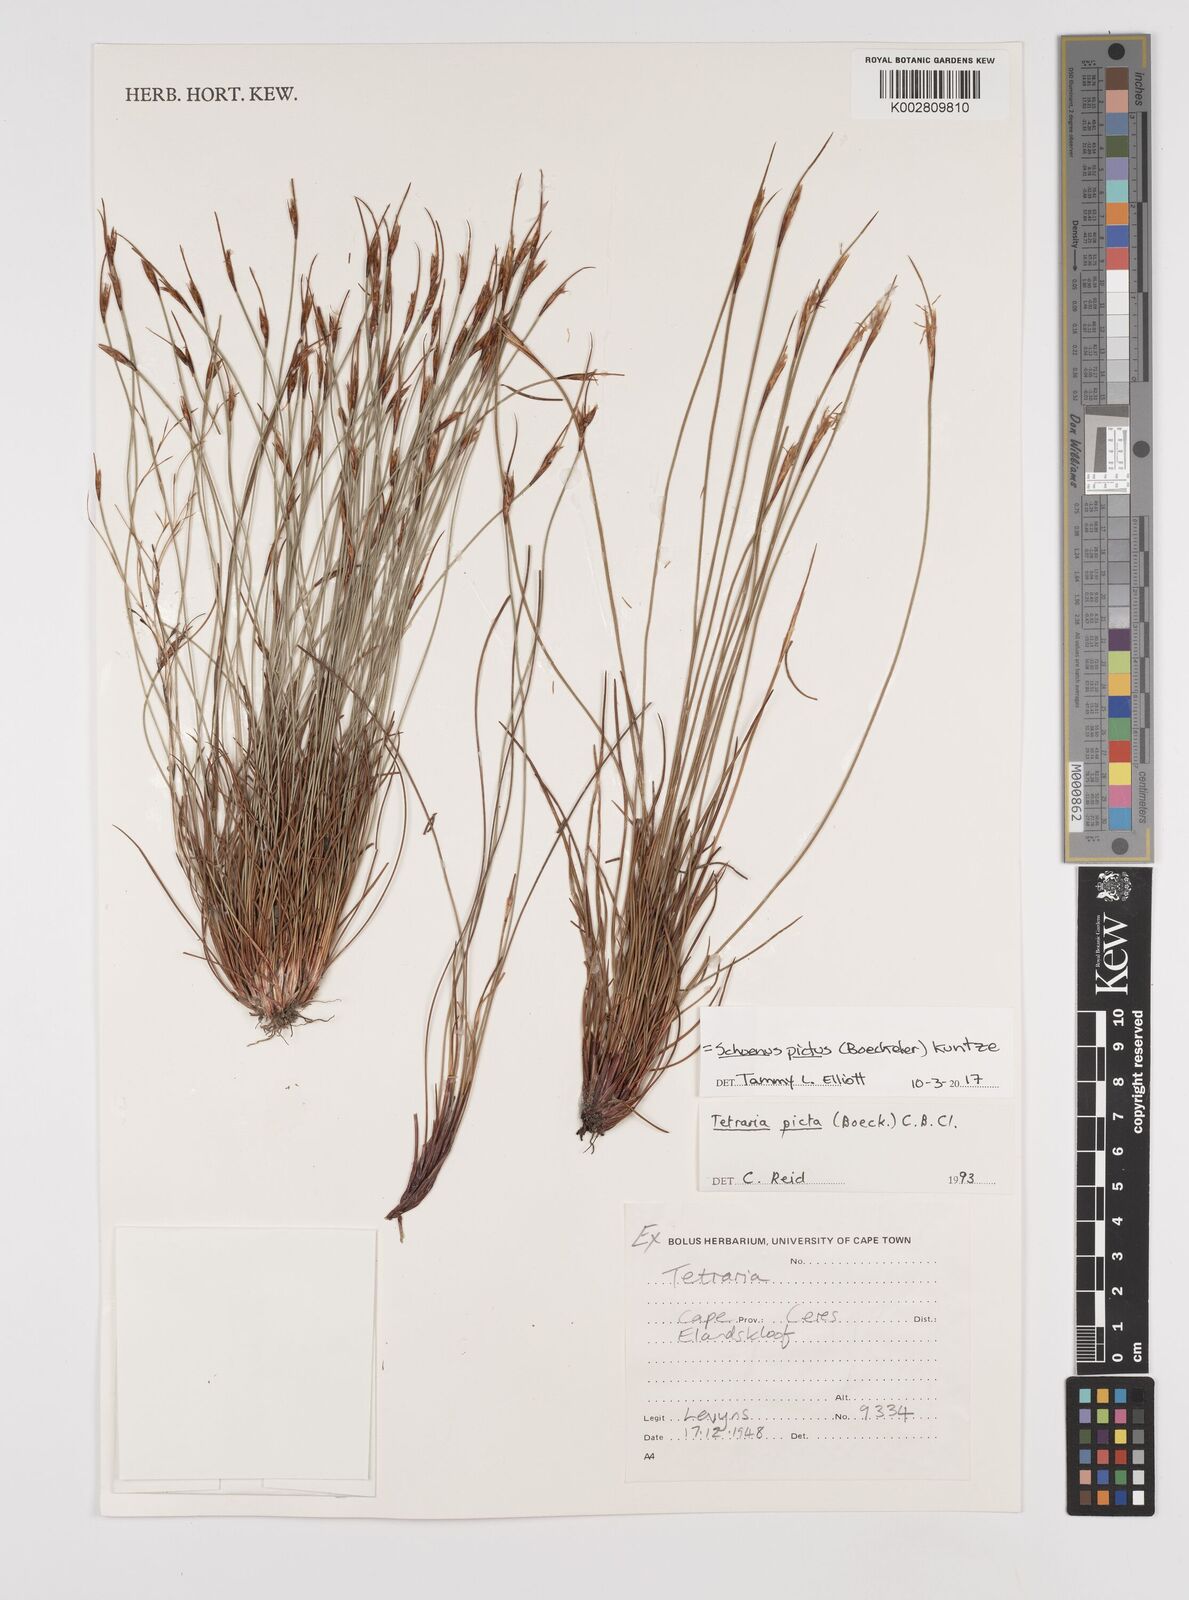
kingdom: Plantae
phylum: Tracheophyta
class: Liliopsida
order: Poales
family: Cyperaceae
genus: Schoenus
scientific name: Schoenus pictus
